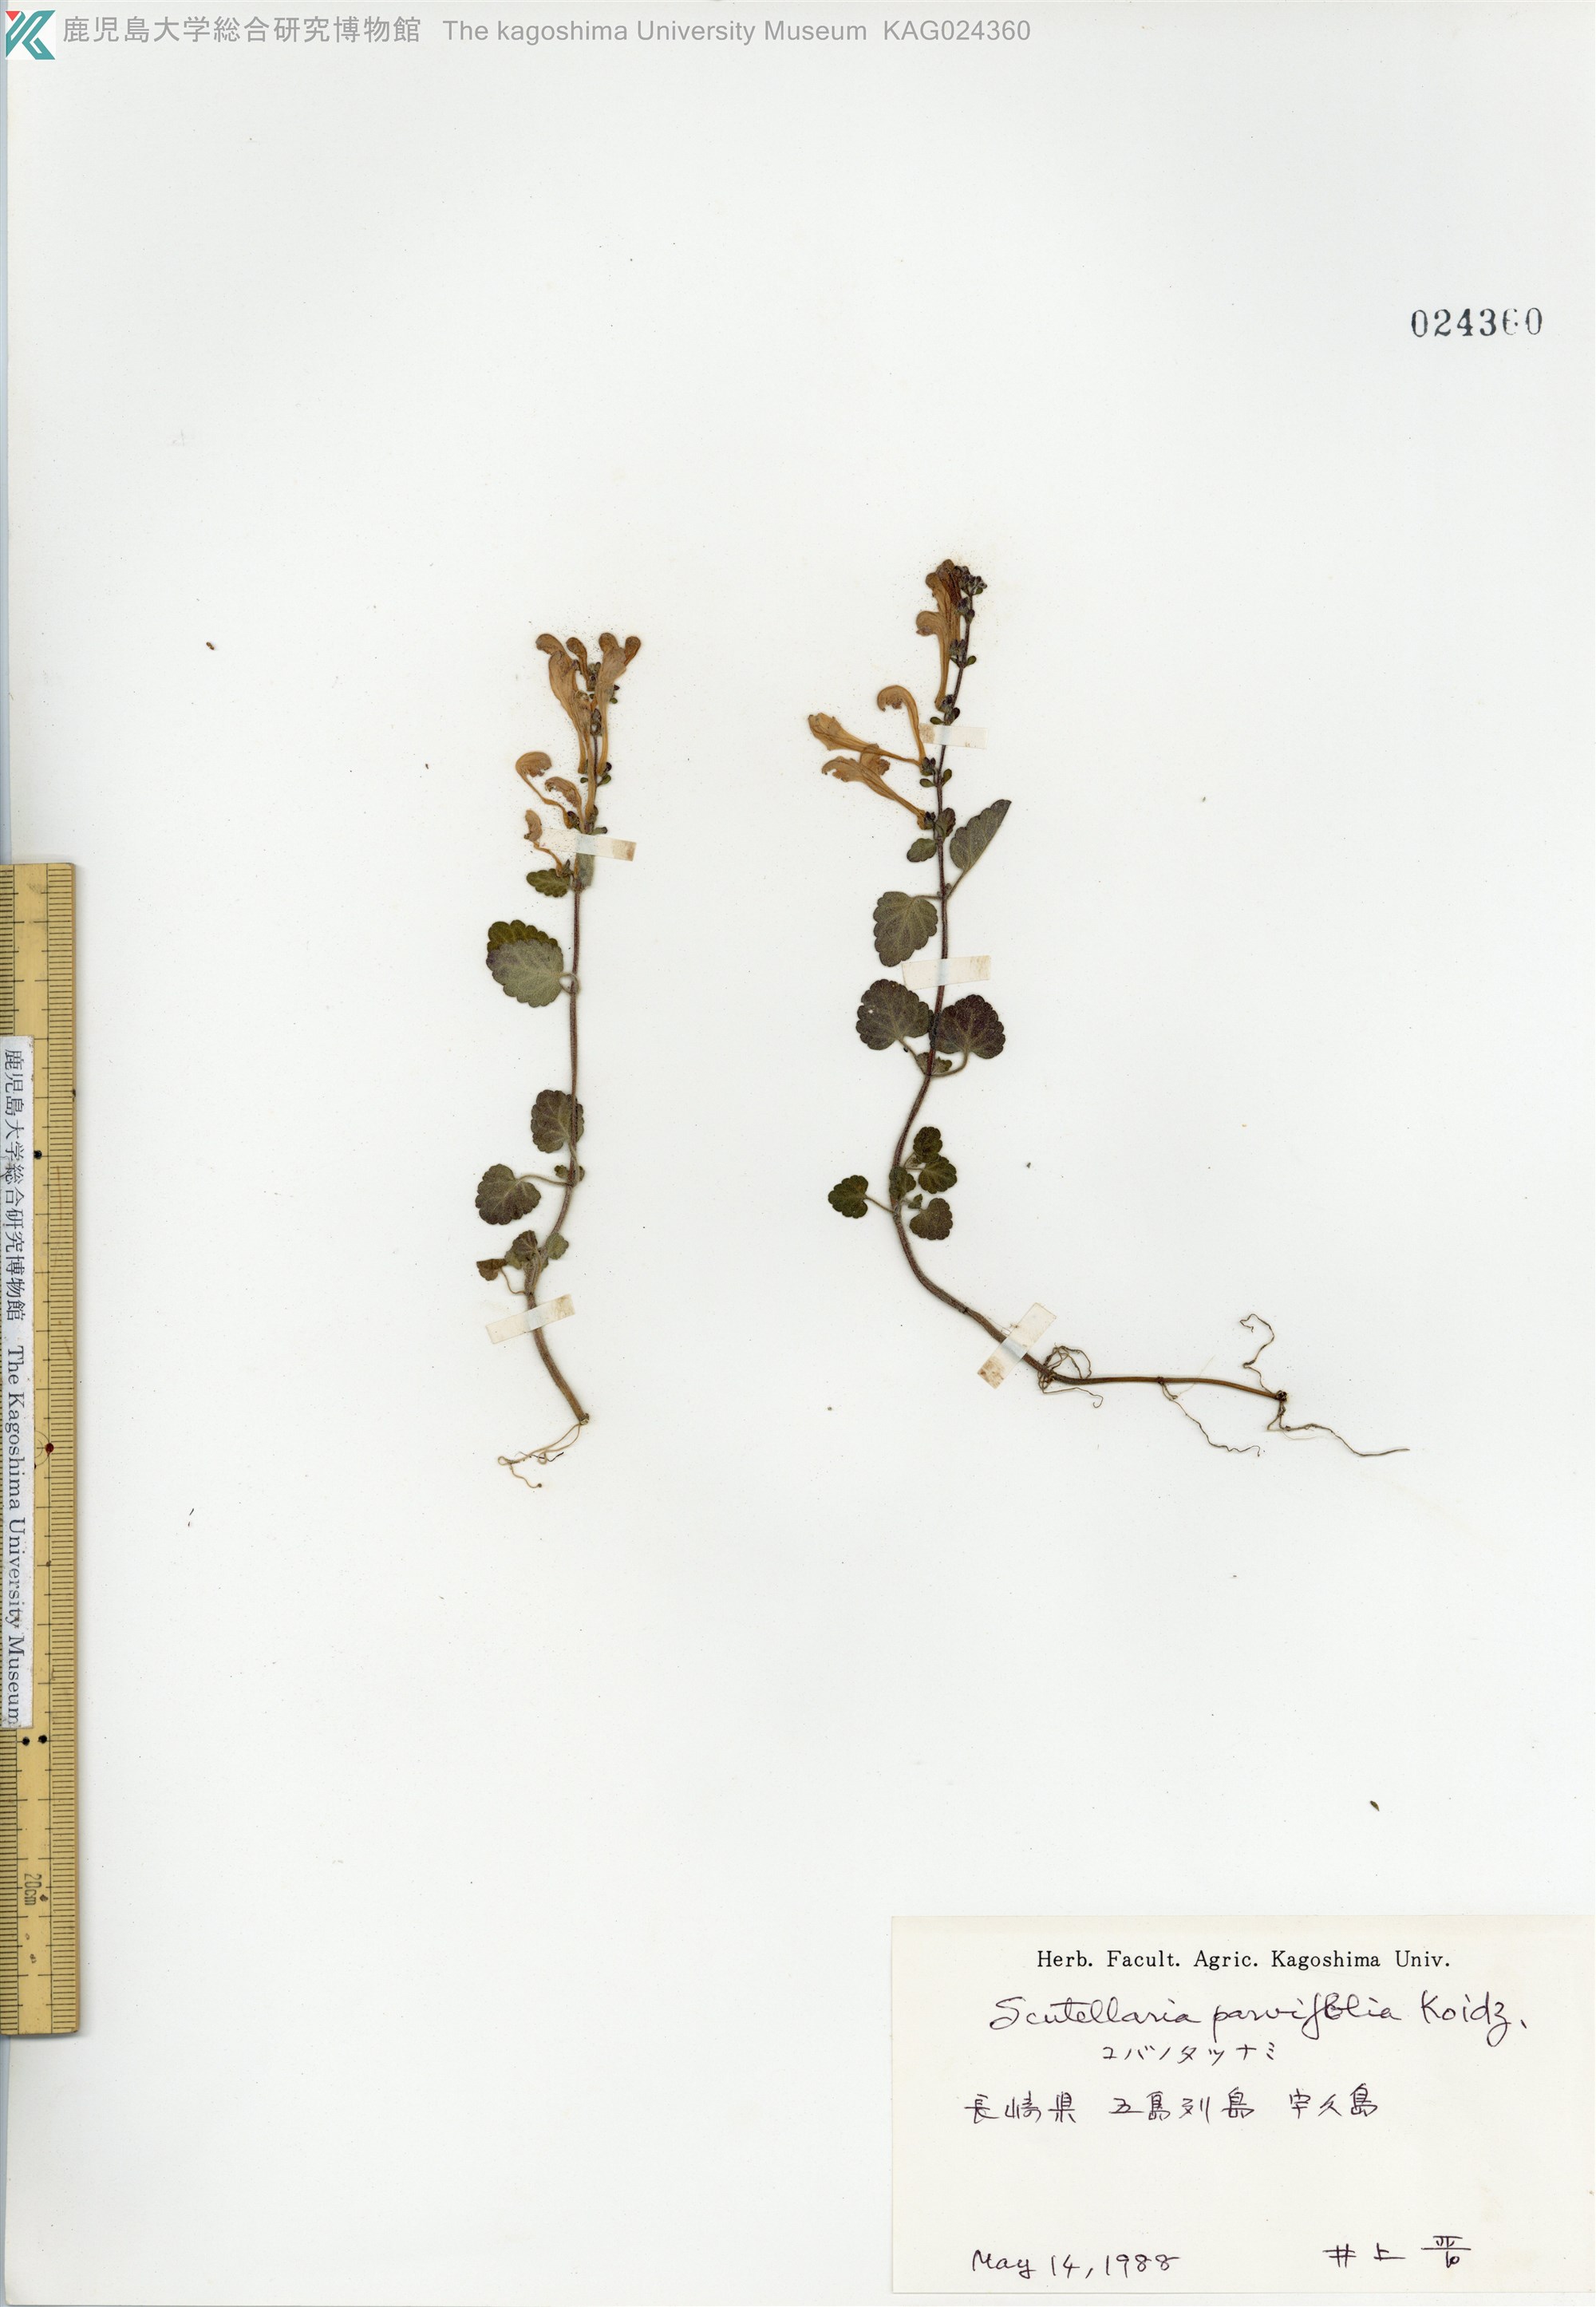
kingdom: Plantae
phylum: Tracheophyta
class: Magnoliopsida
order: Lamiales
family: Lamiaceae
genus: Scutellaria
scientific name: Scutellaria indica
